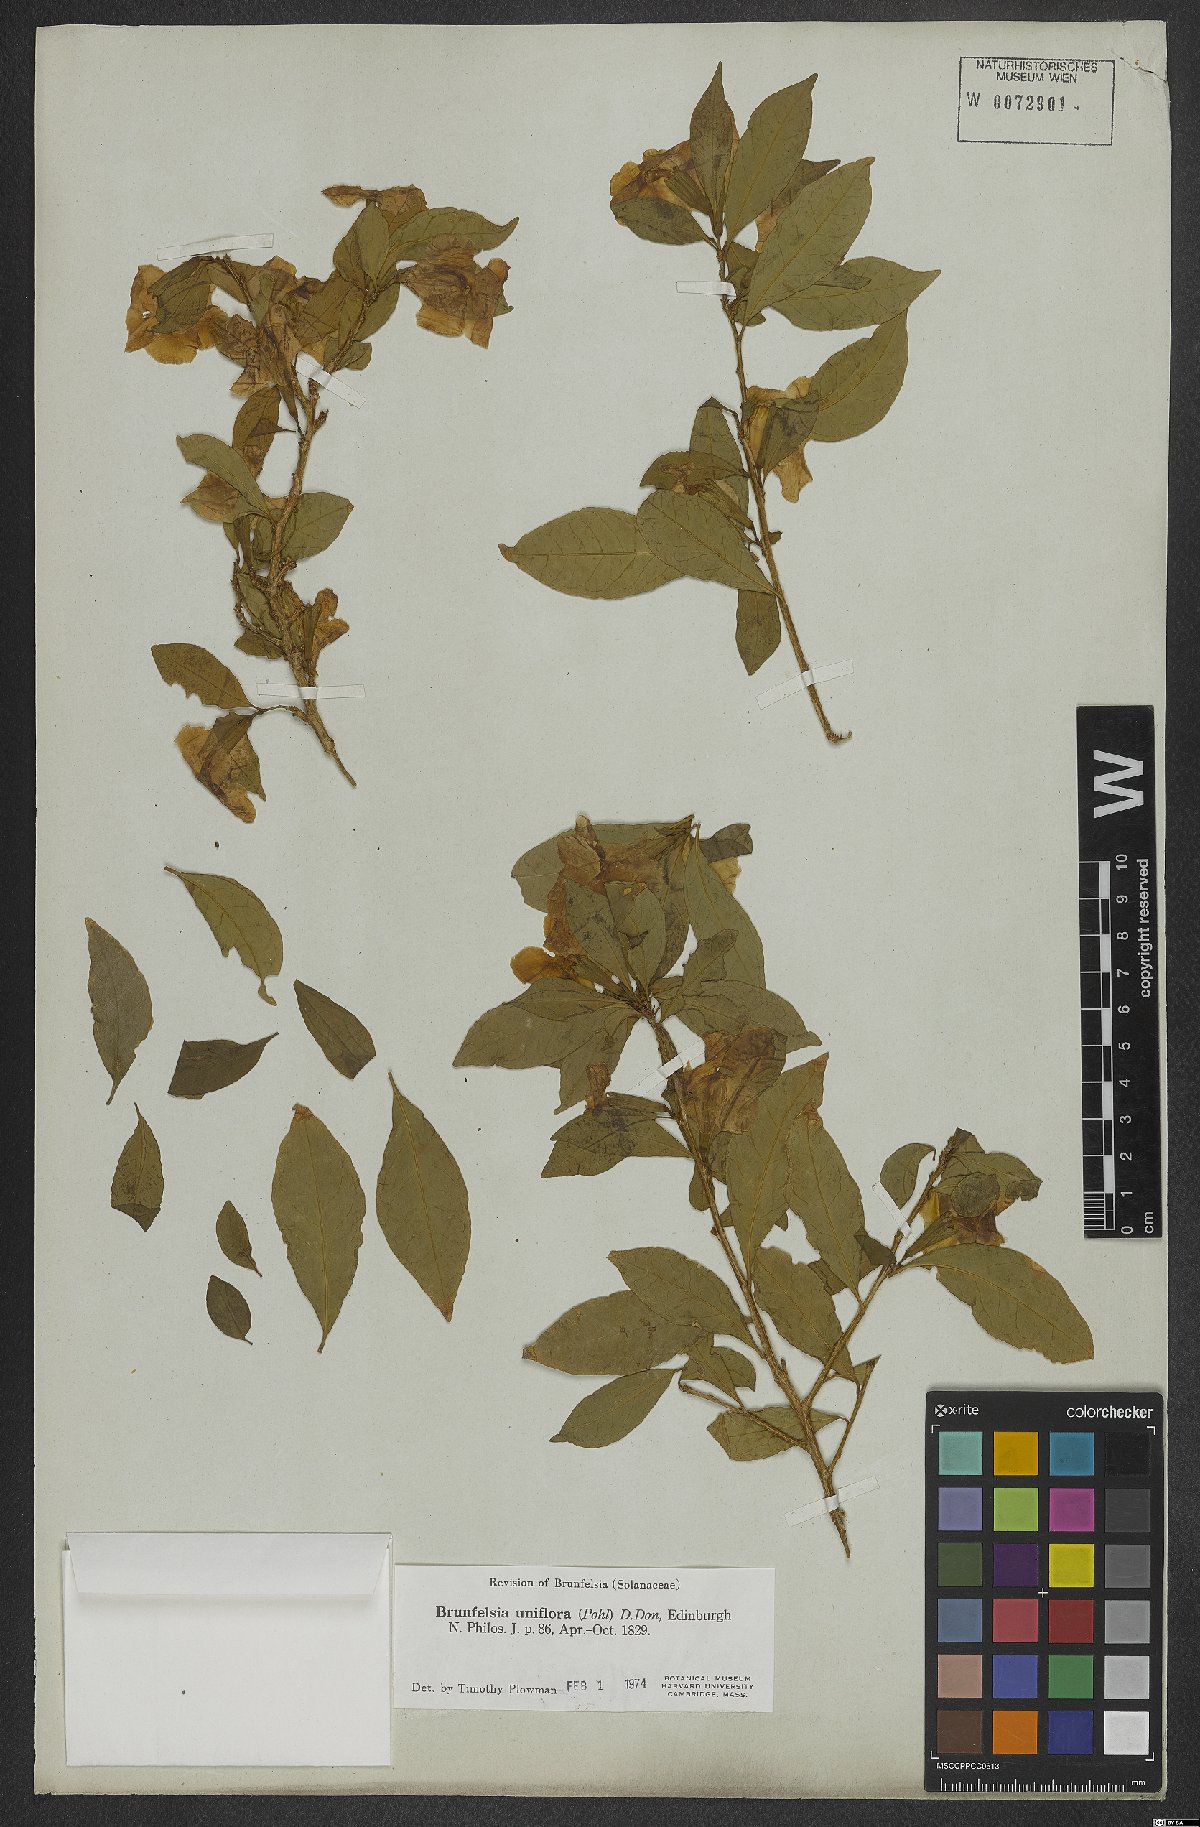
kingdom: Plantae
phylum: Tracheophyta
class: Magnoliopsida
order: Solanales
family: Solanaceae
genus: Brunfelsia
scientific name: Brunfelsia uniflora
